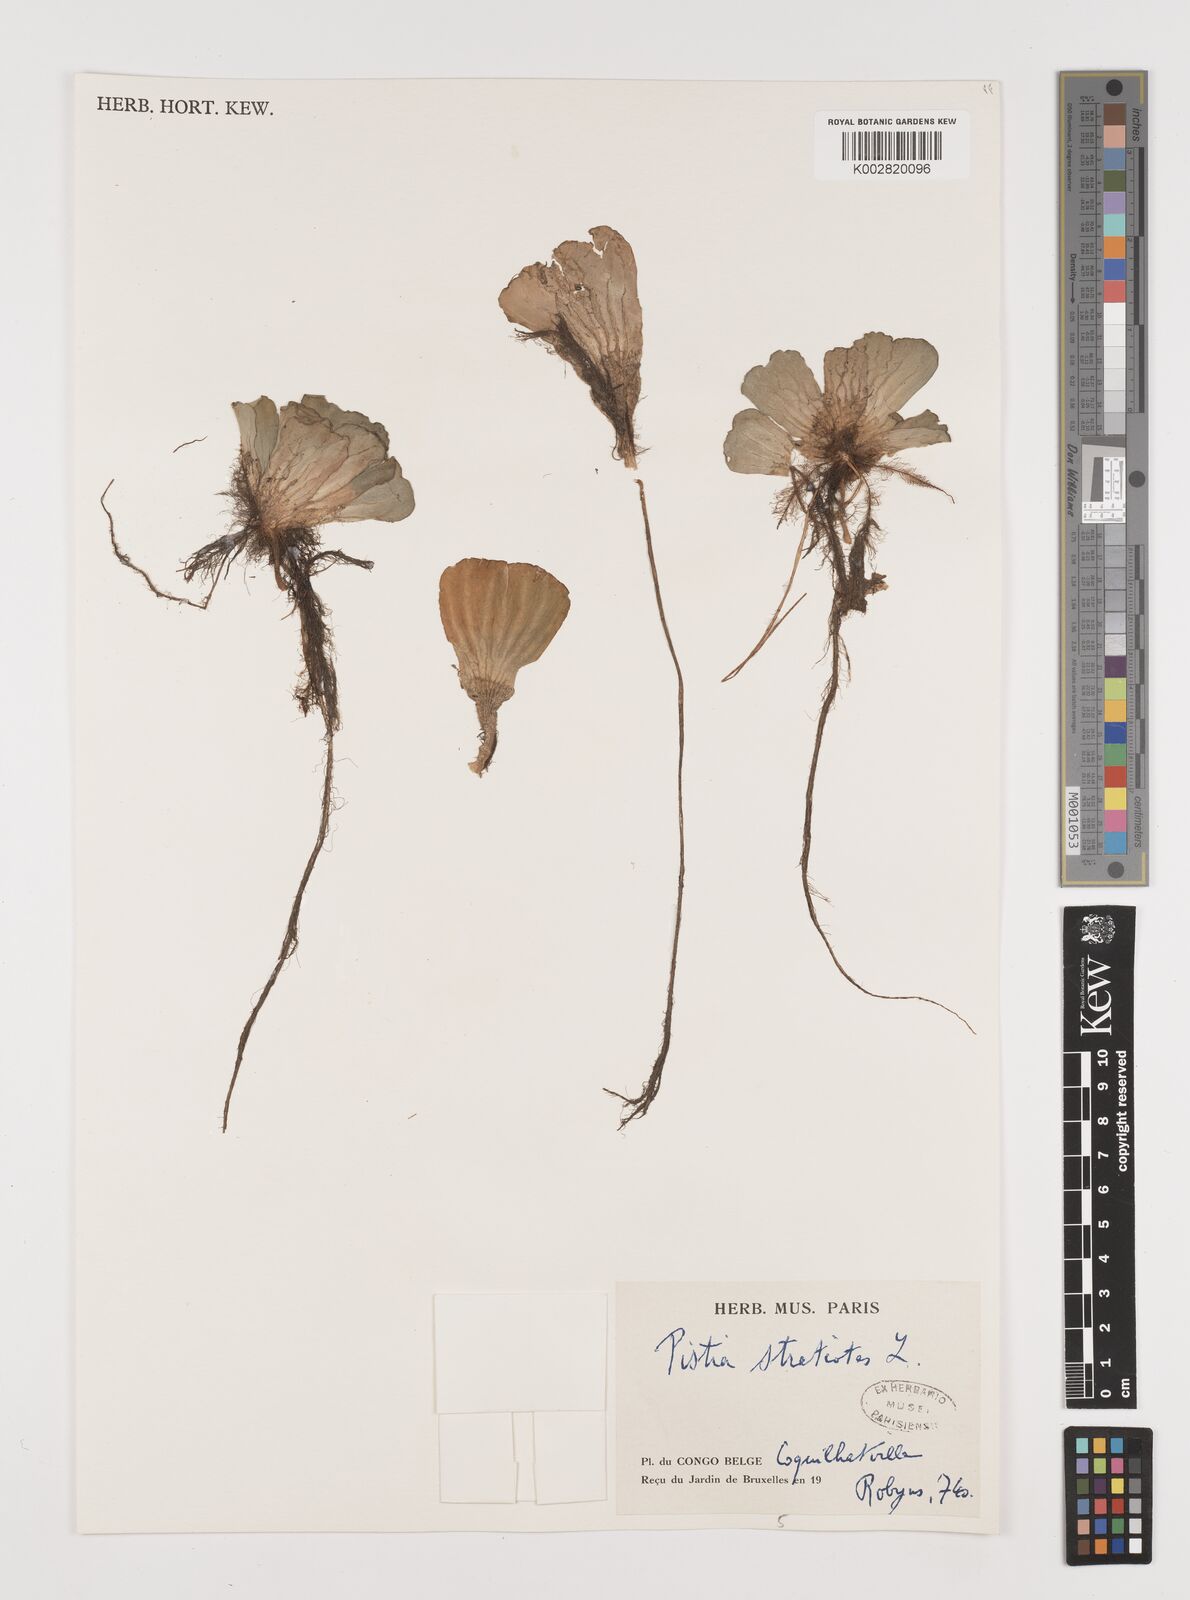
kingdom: Plantae
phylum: Tracheophyta
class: Liliopsida
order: Alismatales
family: Araceae
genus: Pistia
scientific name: Pistia stratiotes
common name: Water lettuce
